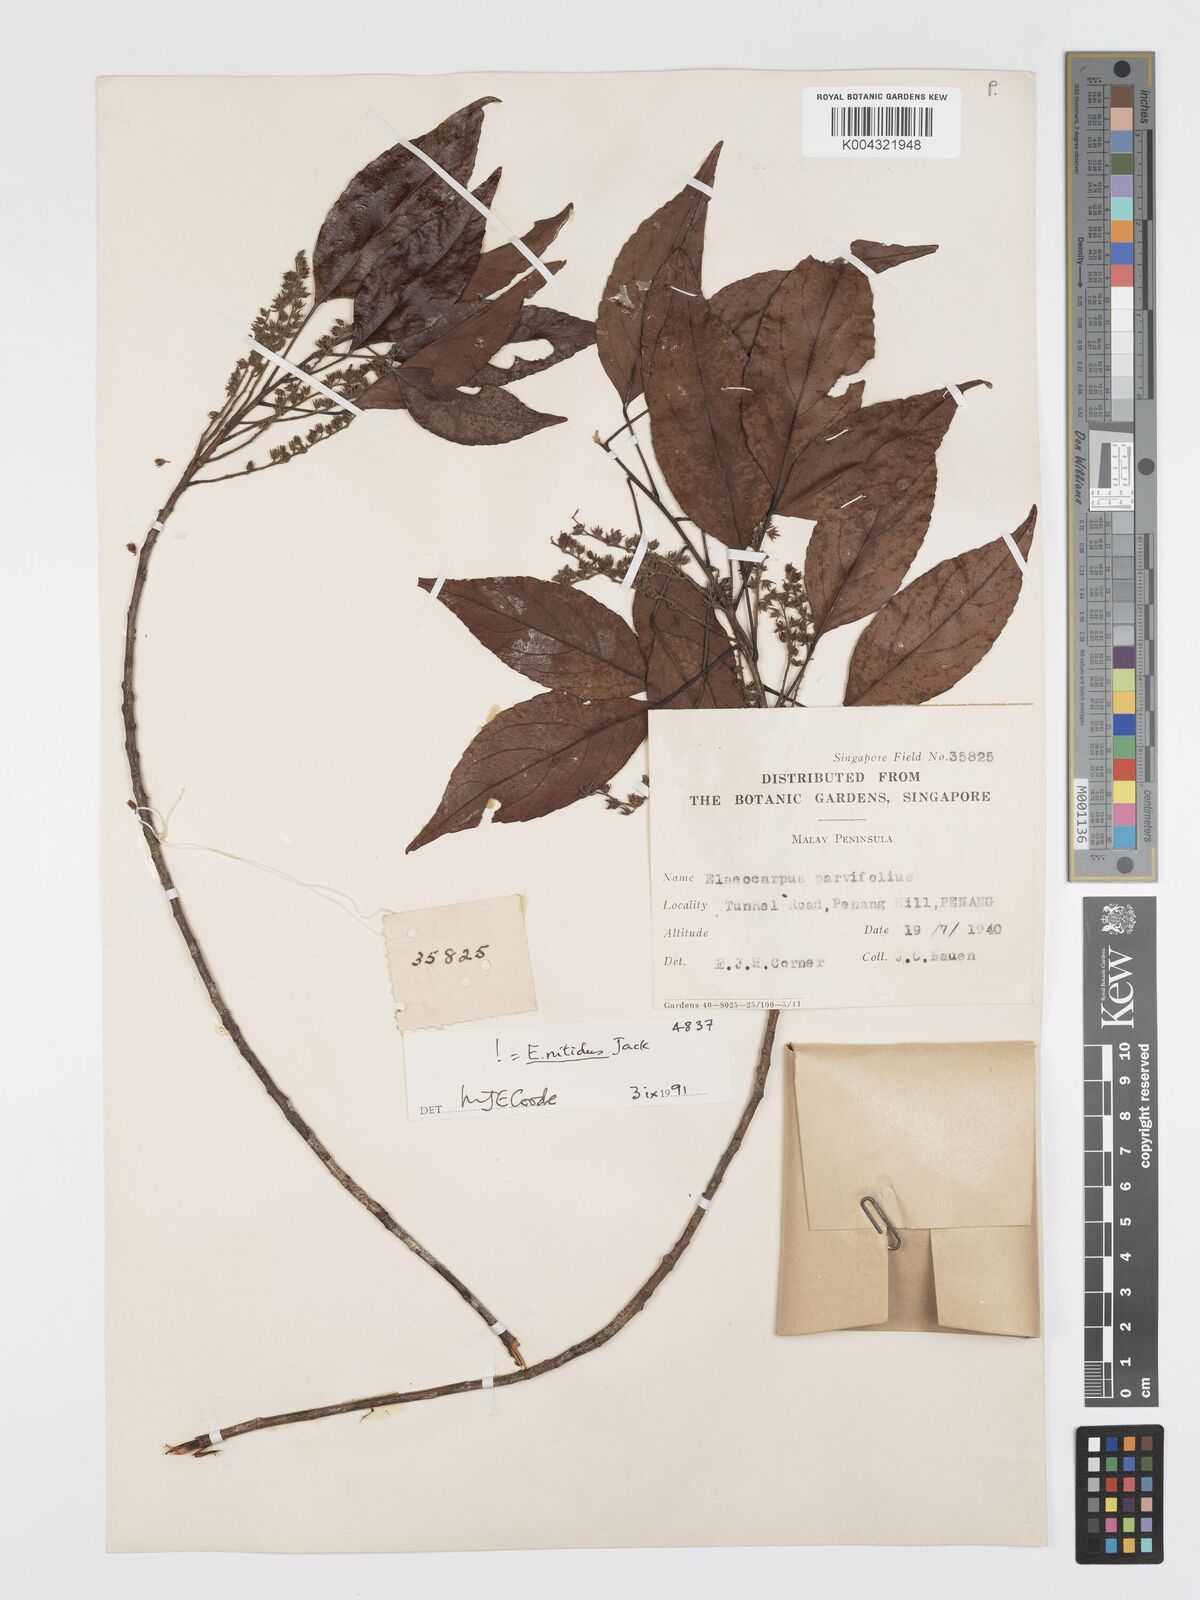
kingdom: Plantae
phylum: Tracheophyta
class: Magnoliopsida
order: Oxalidales
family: Elaeocarpaceae
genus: Elaeocarpus
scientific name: Elaeocarpus nitidus
